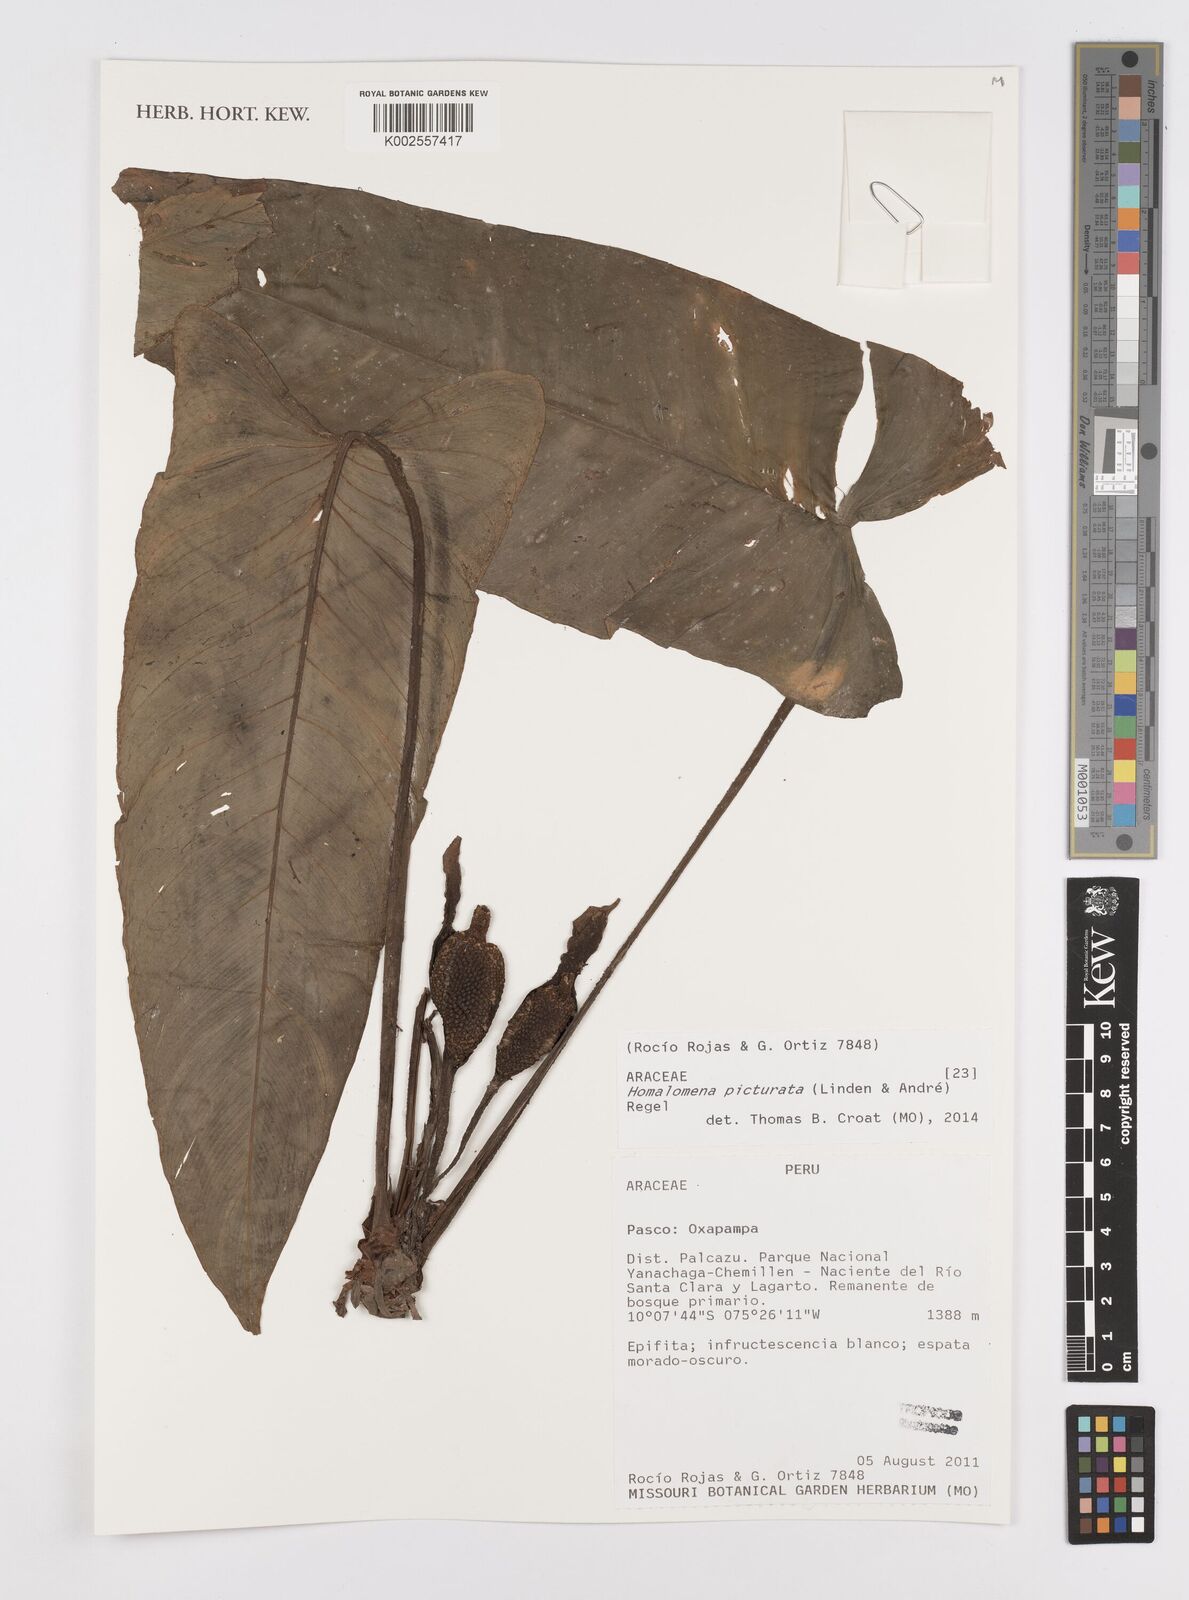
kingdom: Plantae
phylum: Tracheophyta
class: Liliopsida
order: Alismatales
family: Araceae
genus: Adelonema
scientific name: Adelonema picturatum
